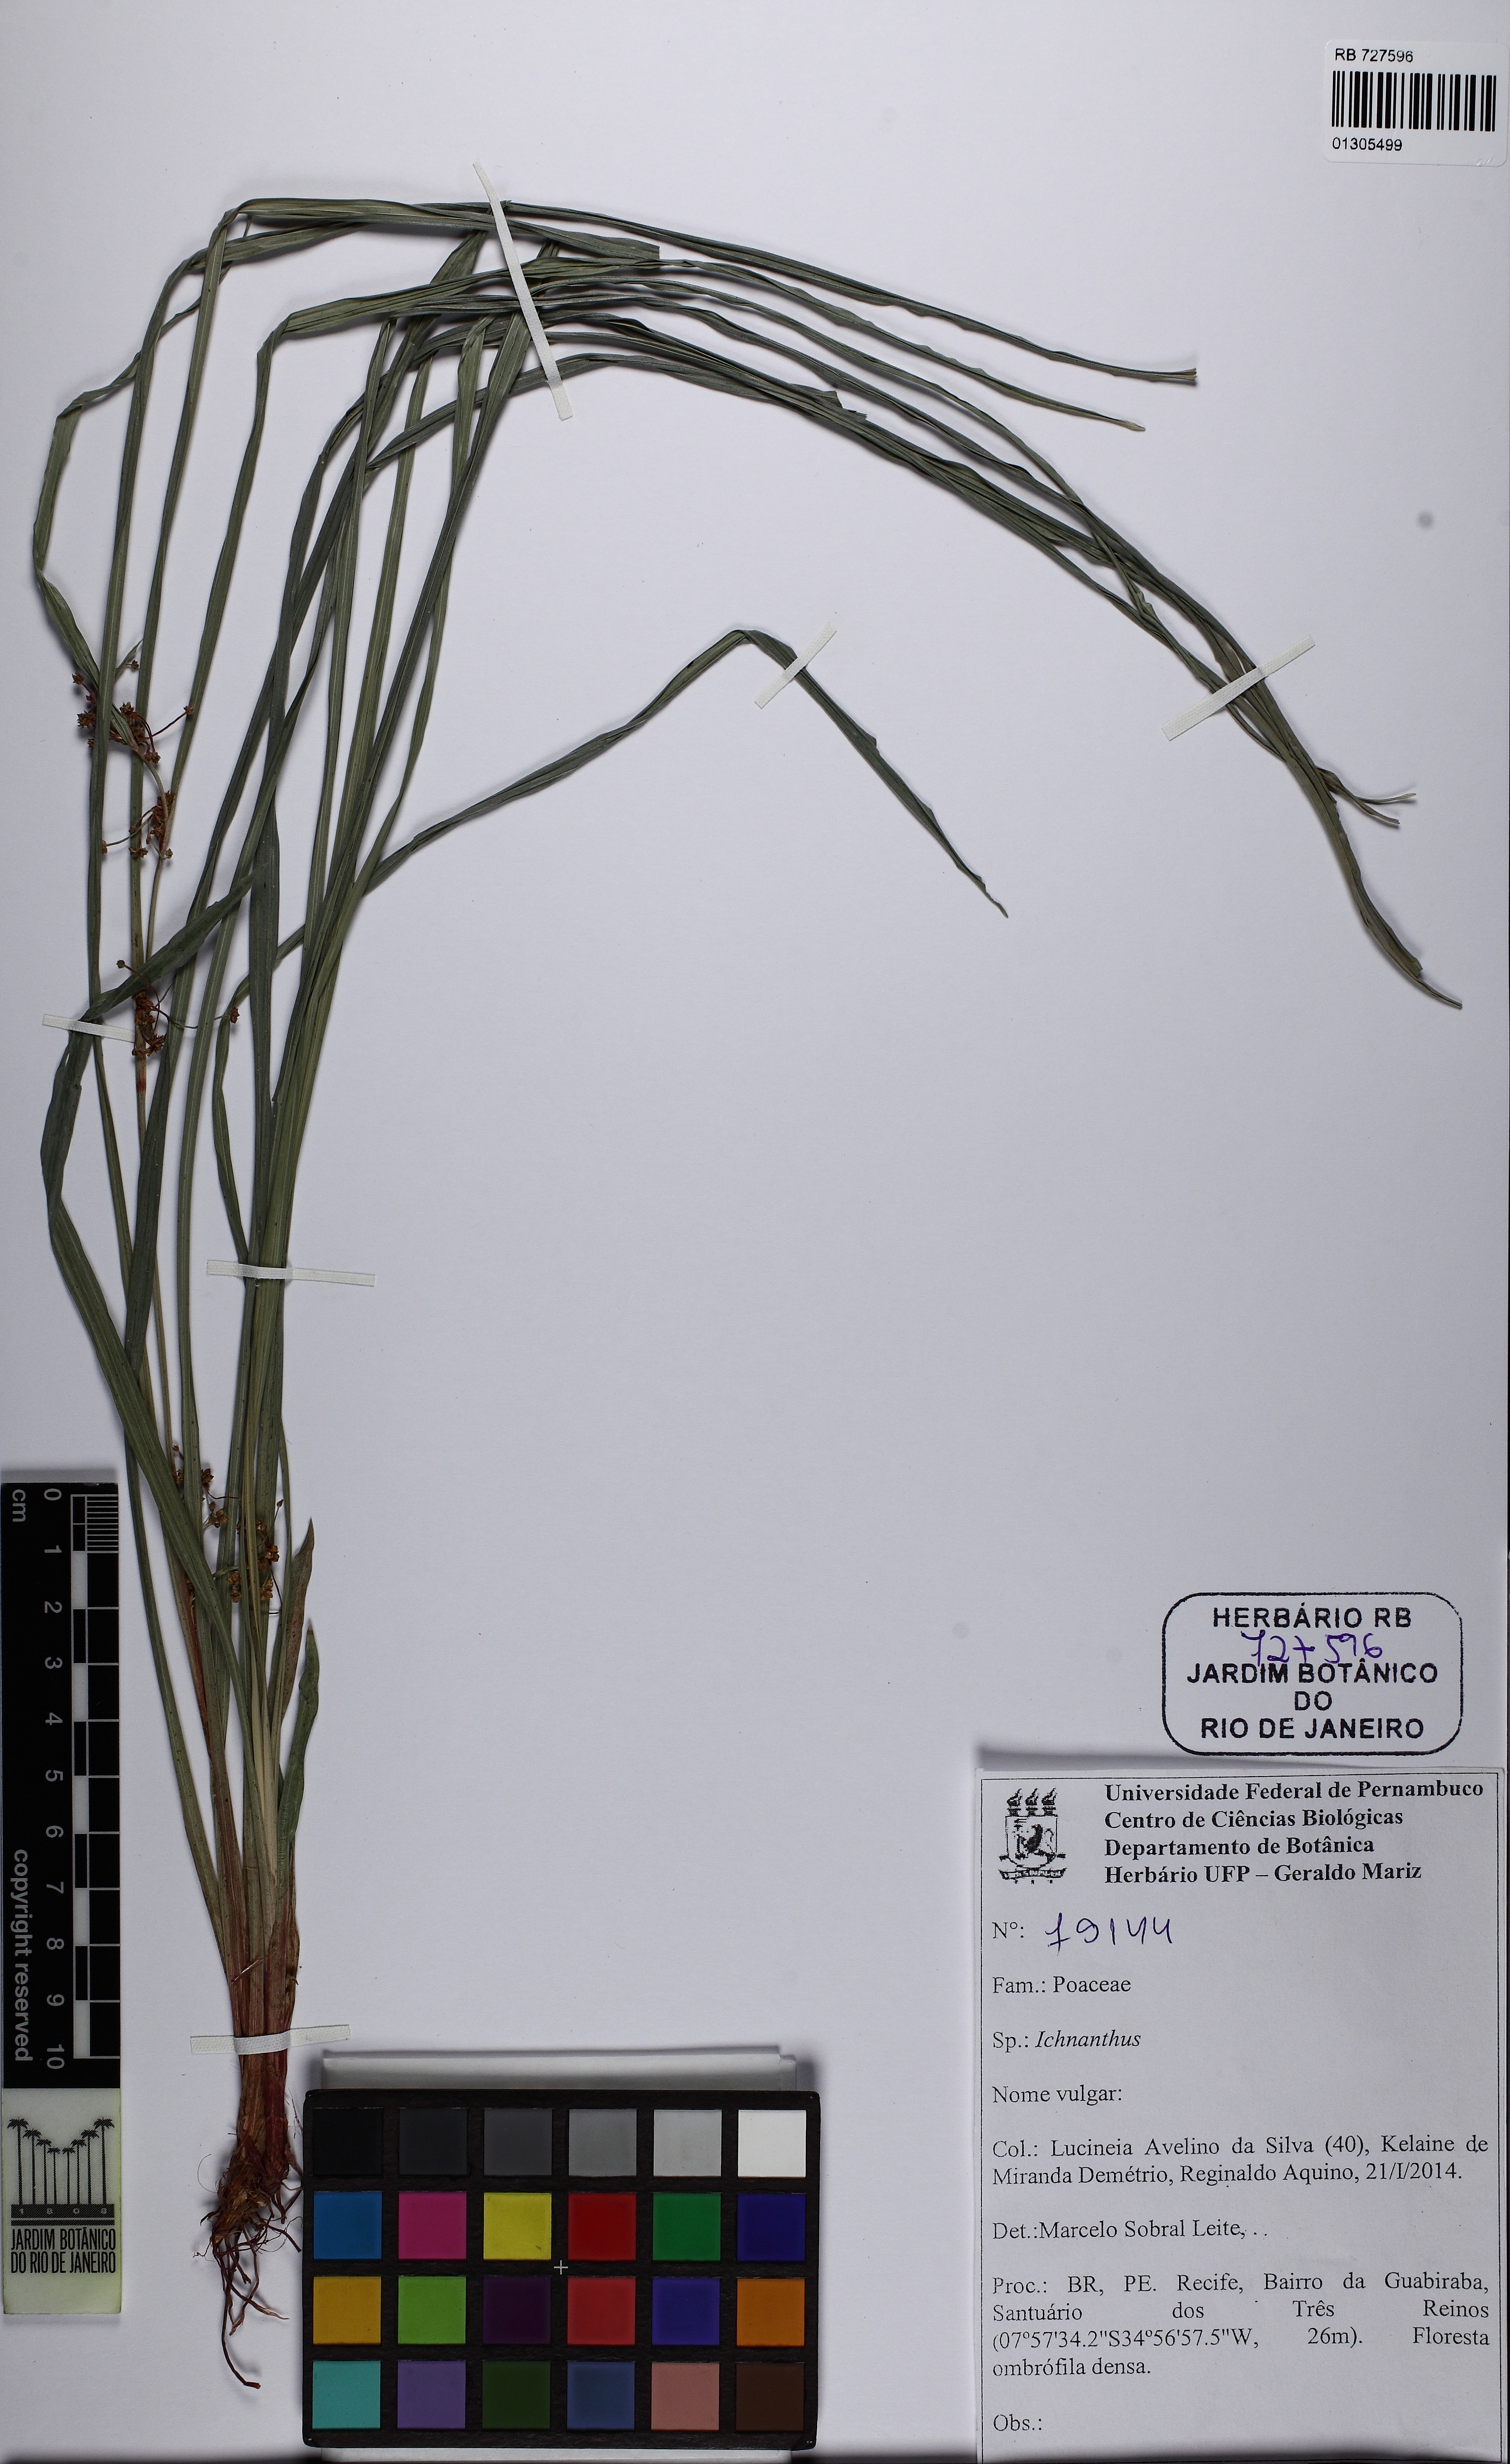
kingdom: Plantae
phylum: Tracheophyta
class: Liliopsida
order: Poales
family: Poaceae
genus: Ichnanthus
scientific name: Ichnanthus
